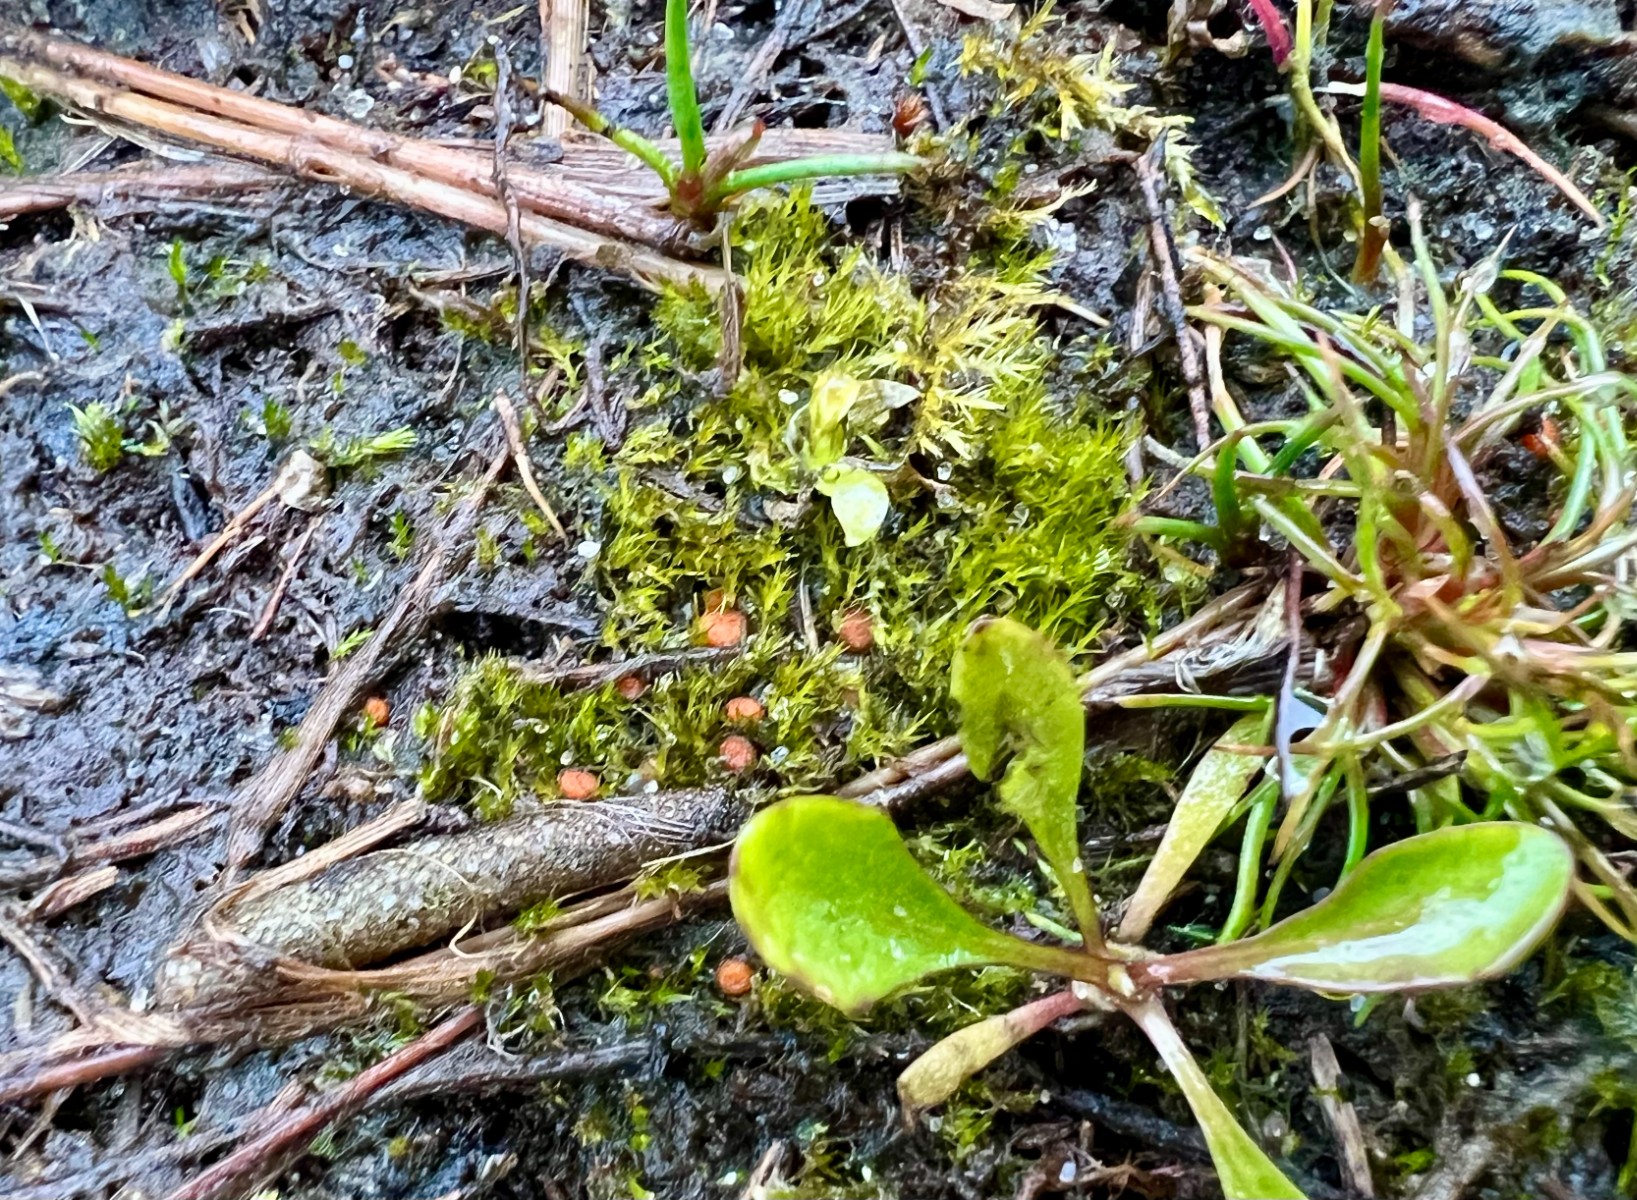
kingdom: Fungi
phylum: Ascomycota
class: Pezizomycetes
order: Pezizales
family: Pyronemataceae
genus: Octospora
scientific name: Octospora maireana
